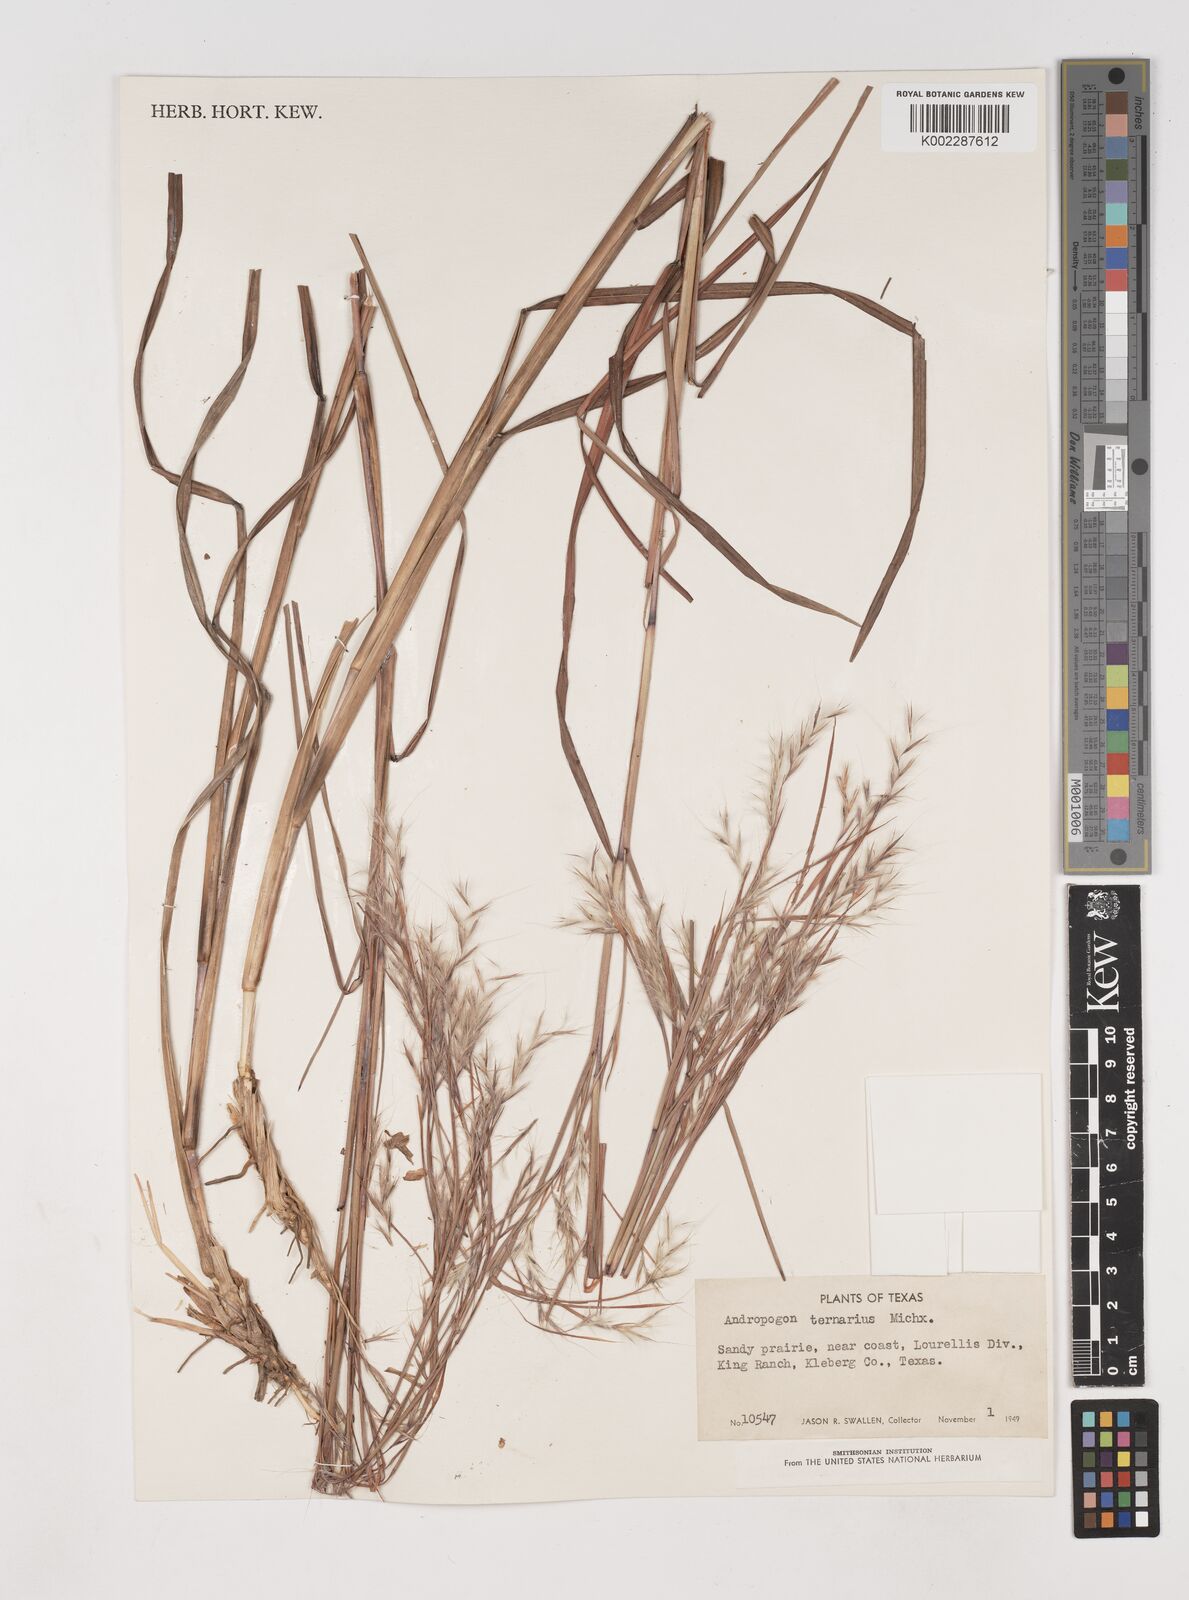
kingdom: Plantae
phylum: Tracheophyta
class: Liliopsida
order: Poales
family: Poaceae
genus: Schizachyrium
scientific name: Schizachyrium scoparium
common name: Little bluestem
